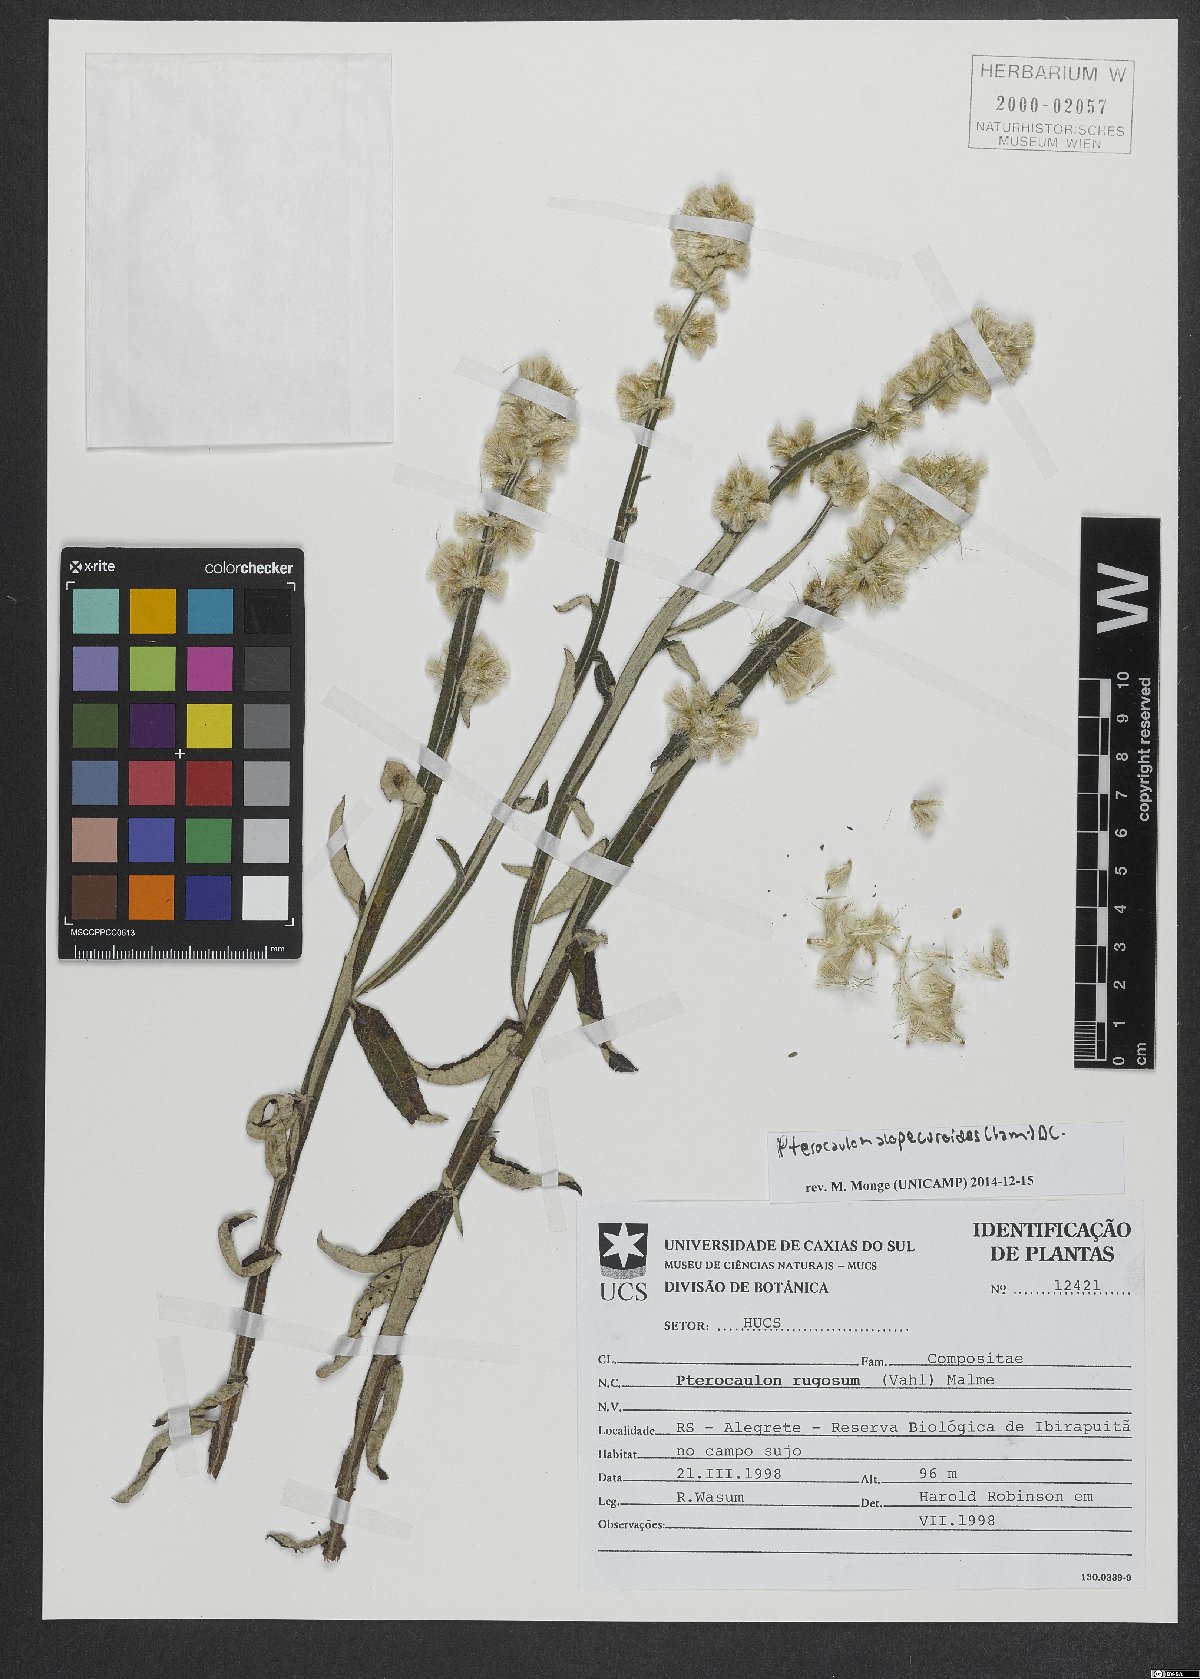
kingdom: Plantae
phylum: Tracheophyta
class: Magnoliopsida
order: Asterales
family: Asteraceae
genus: Pterocaulon
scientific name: Pterocaulon alopecuroides
